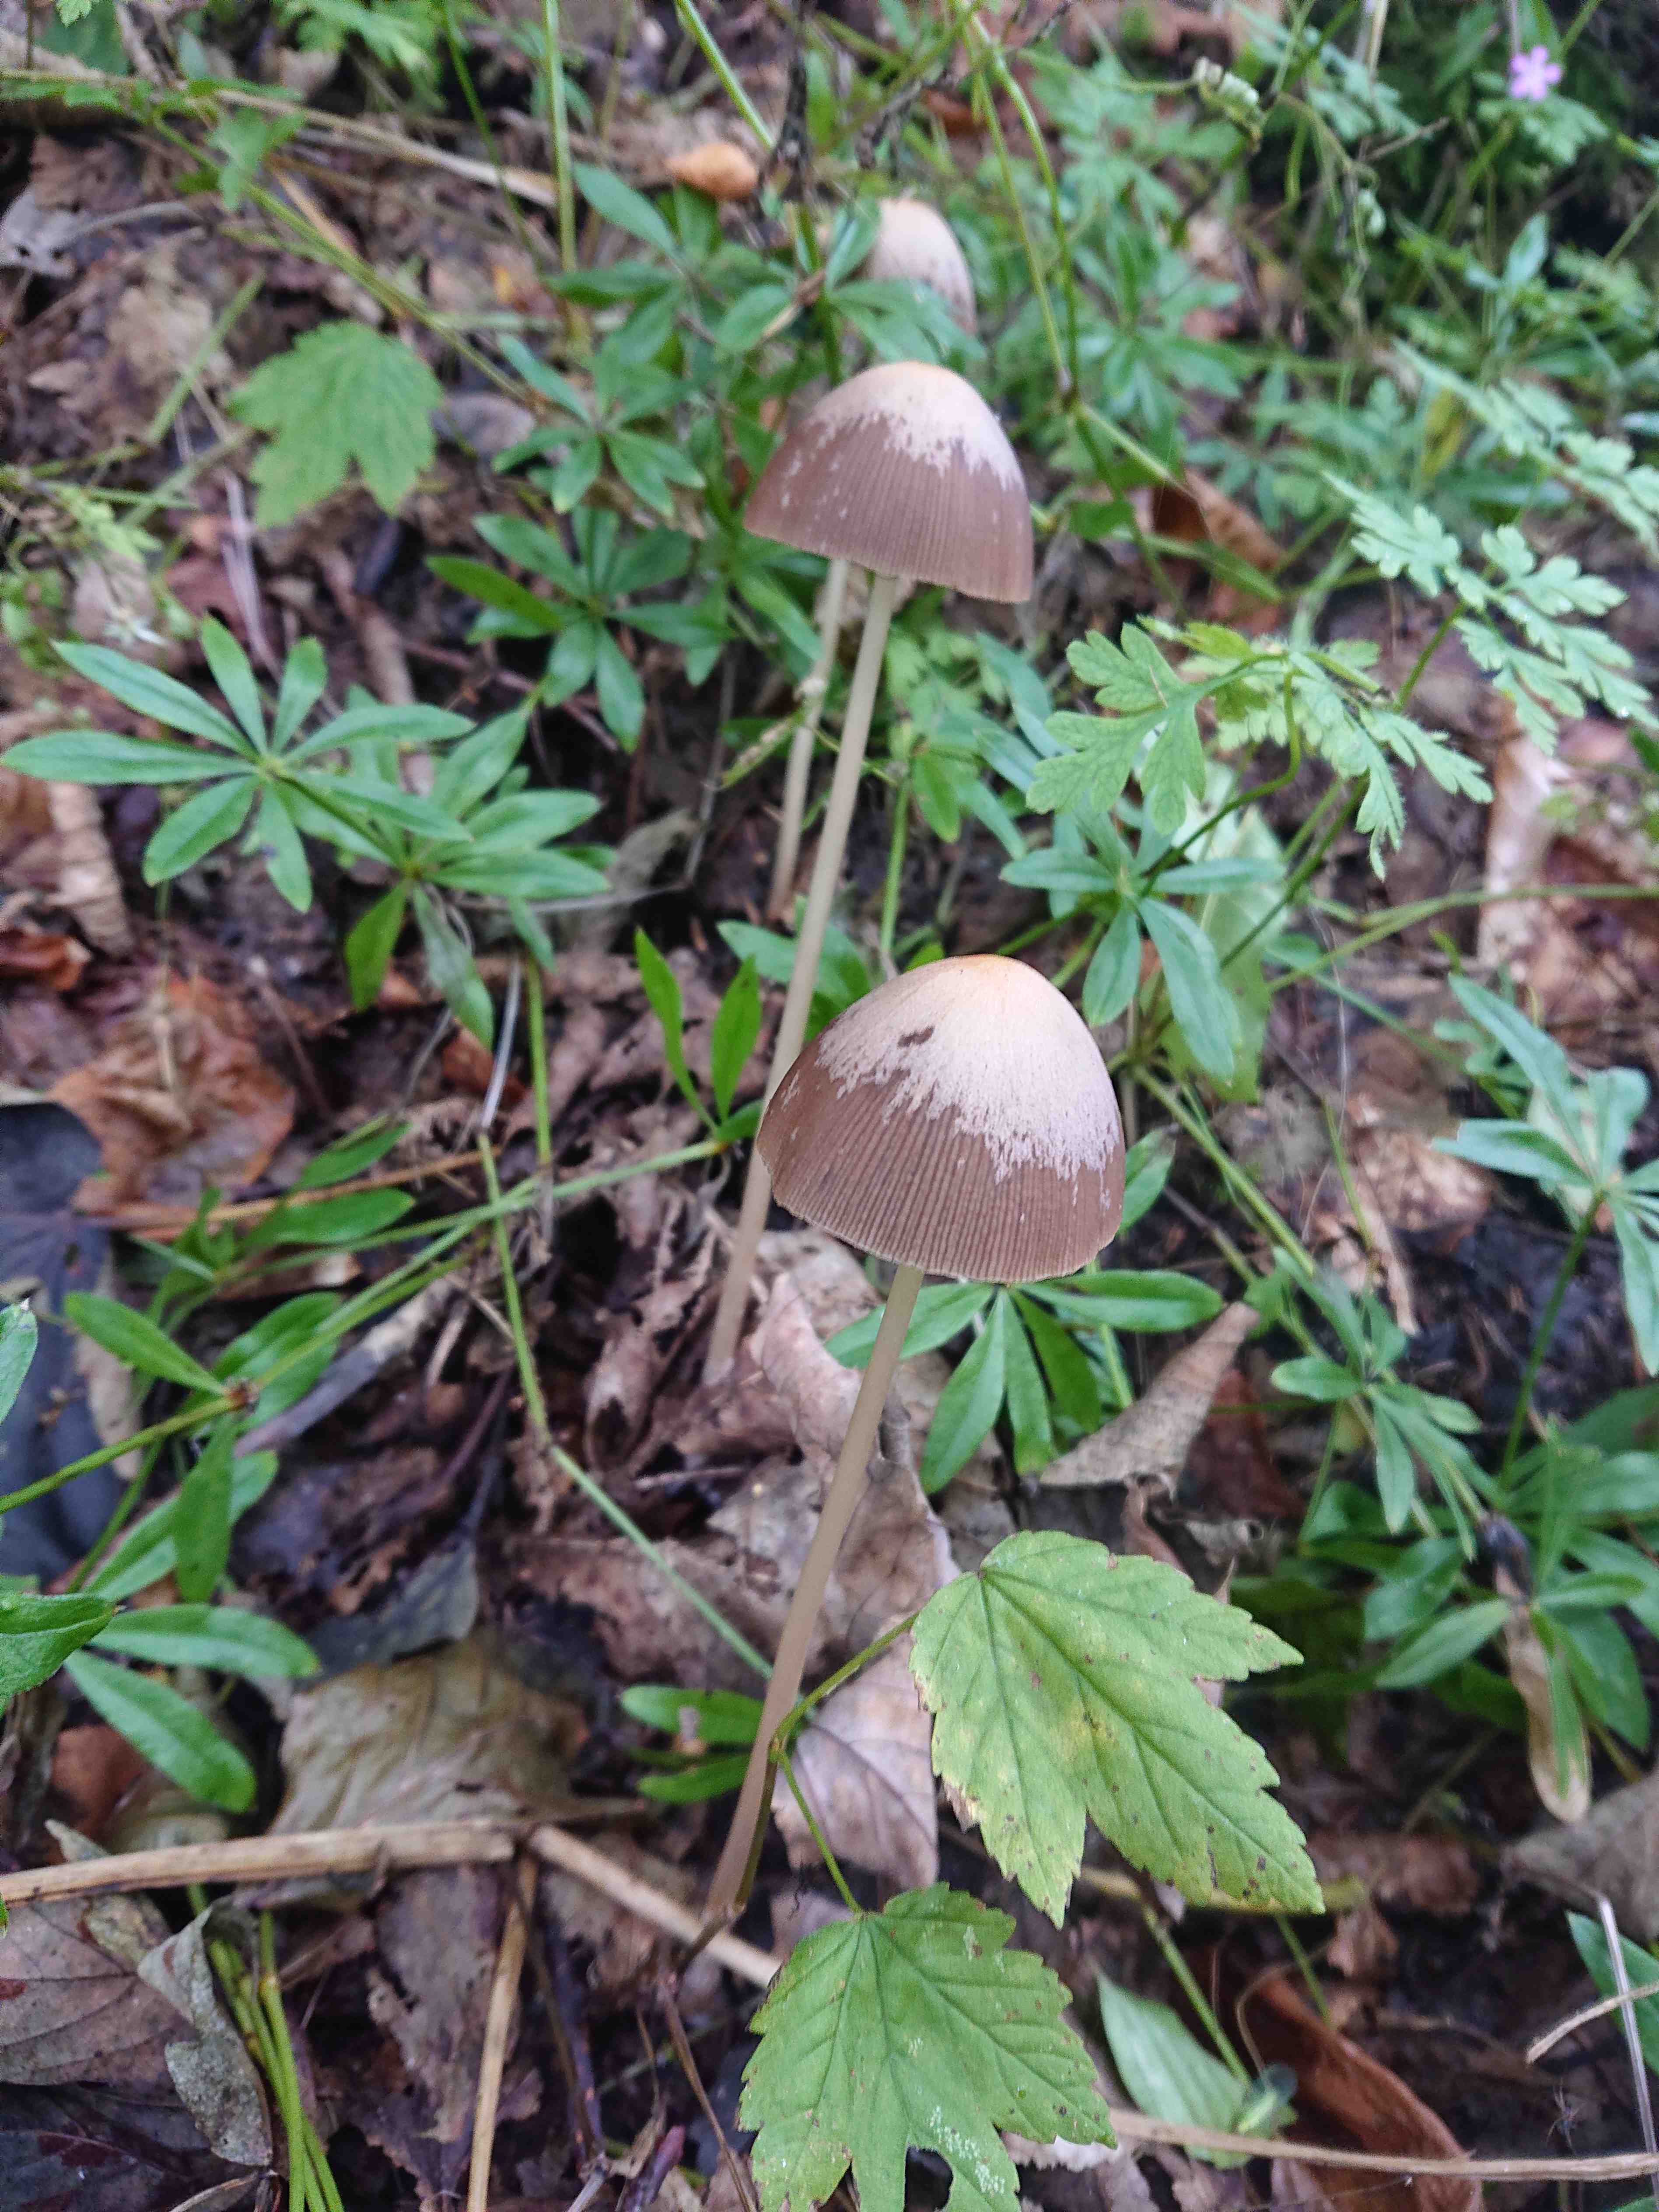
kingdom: Fungi
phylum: Basidiomycota
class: Agaricomycetes
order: Agaricales
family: Psathyrellaceae
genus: Psathyrella
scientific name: Psathyrella
